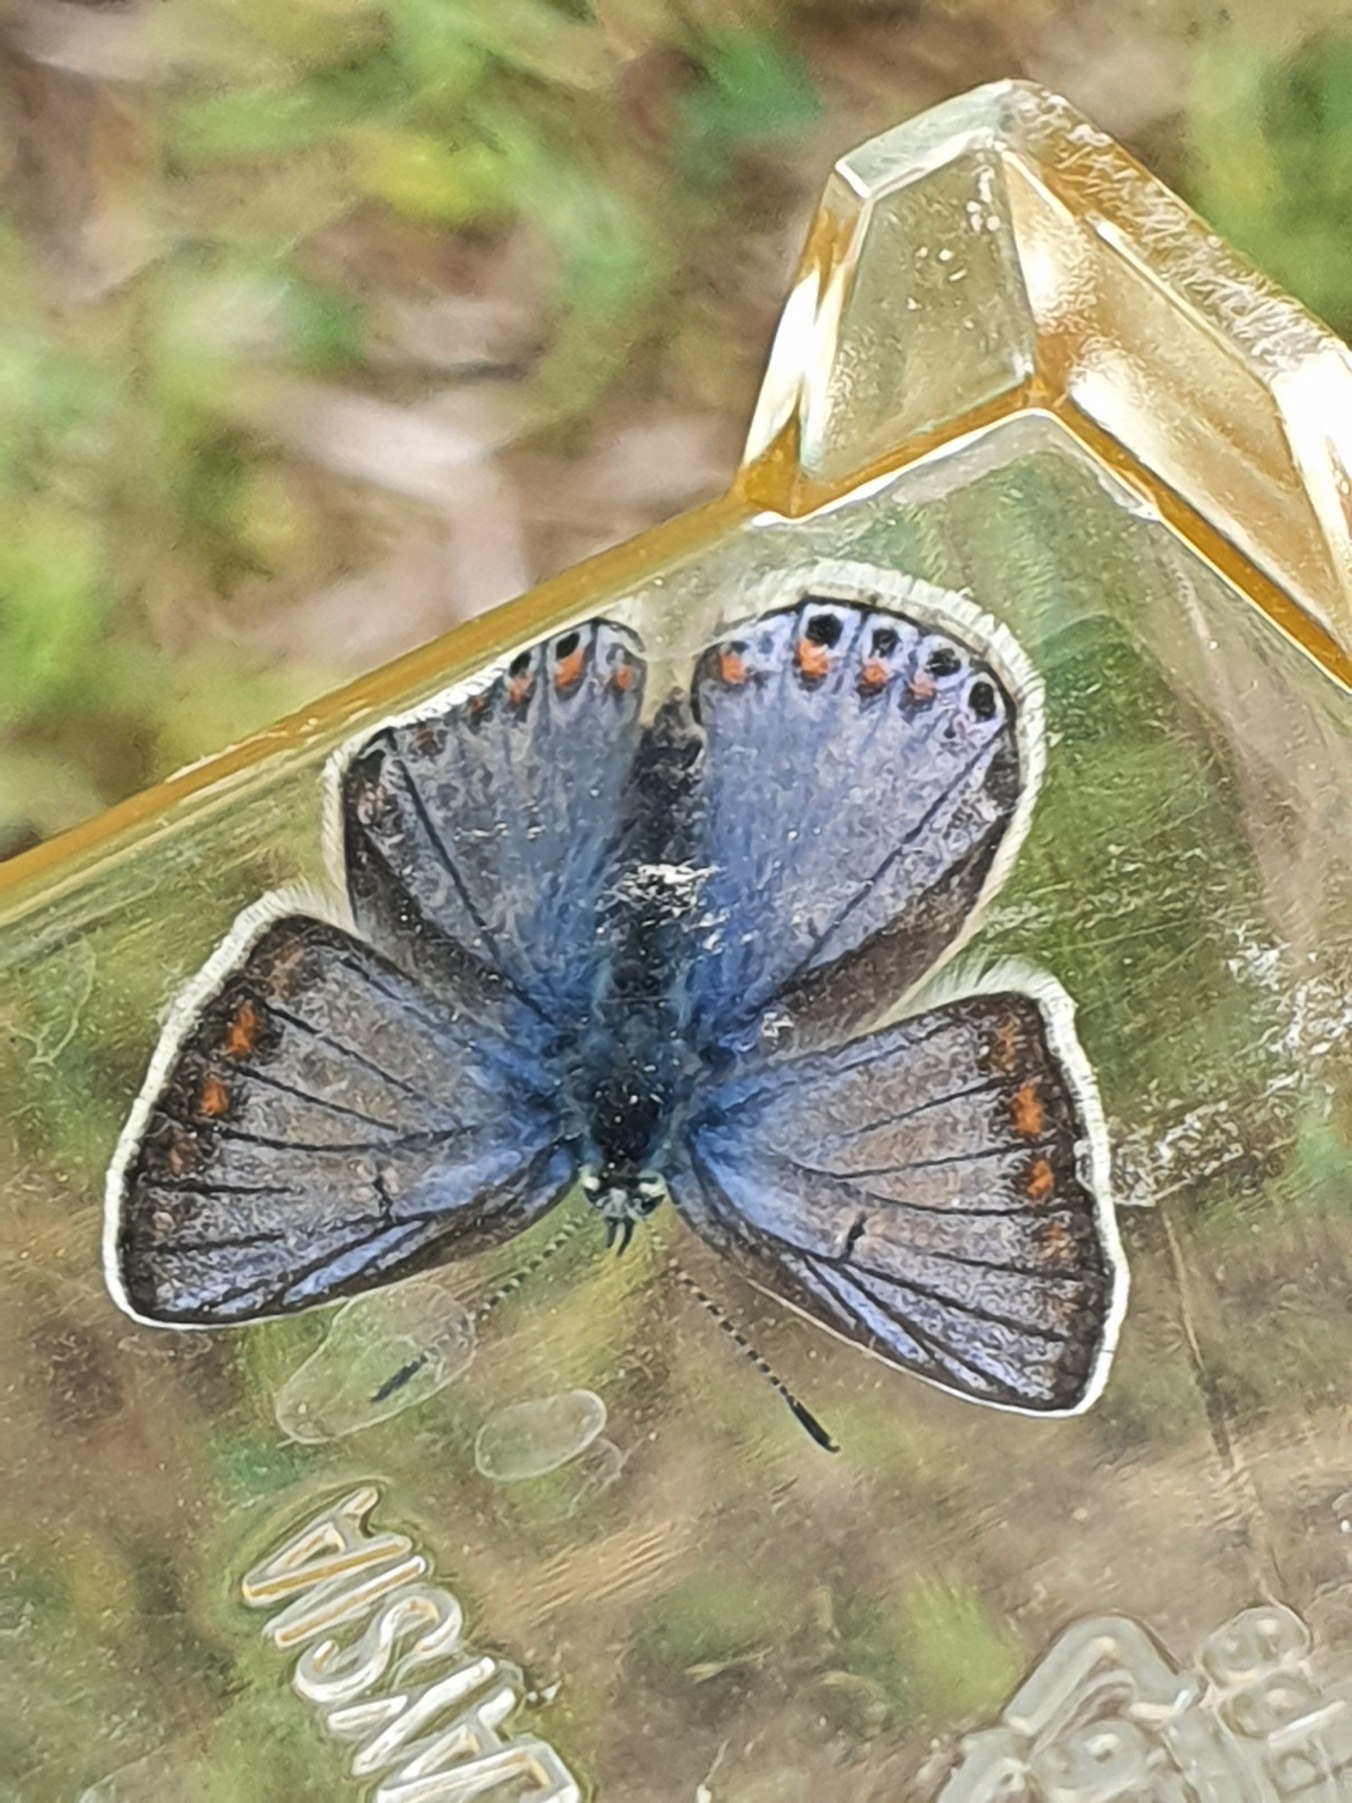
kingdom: Animalia
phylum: Arthropoda
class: Insecta
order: Lepidoptera
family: Lycaenidae
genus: Polyommatus
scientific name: Polyommatus icarus
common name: Almindelig blåfugl
